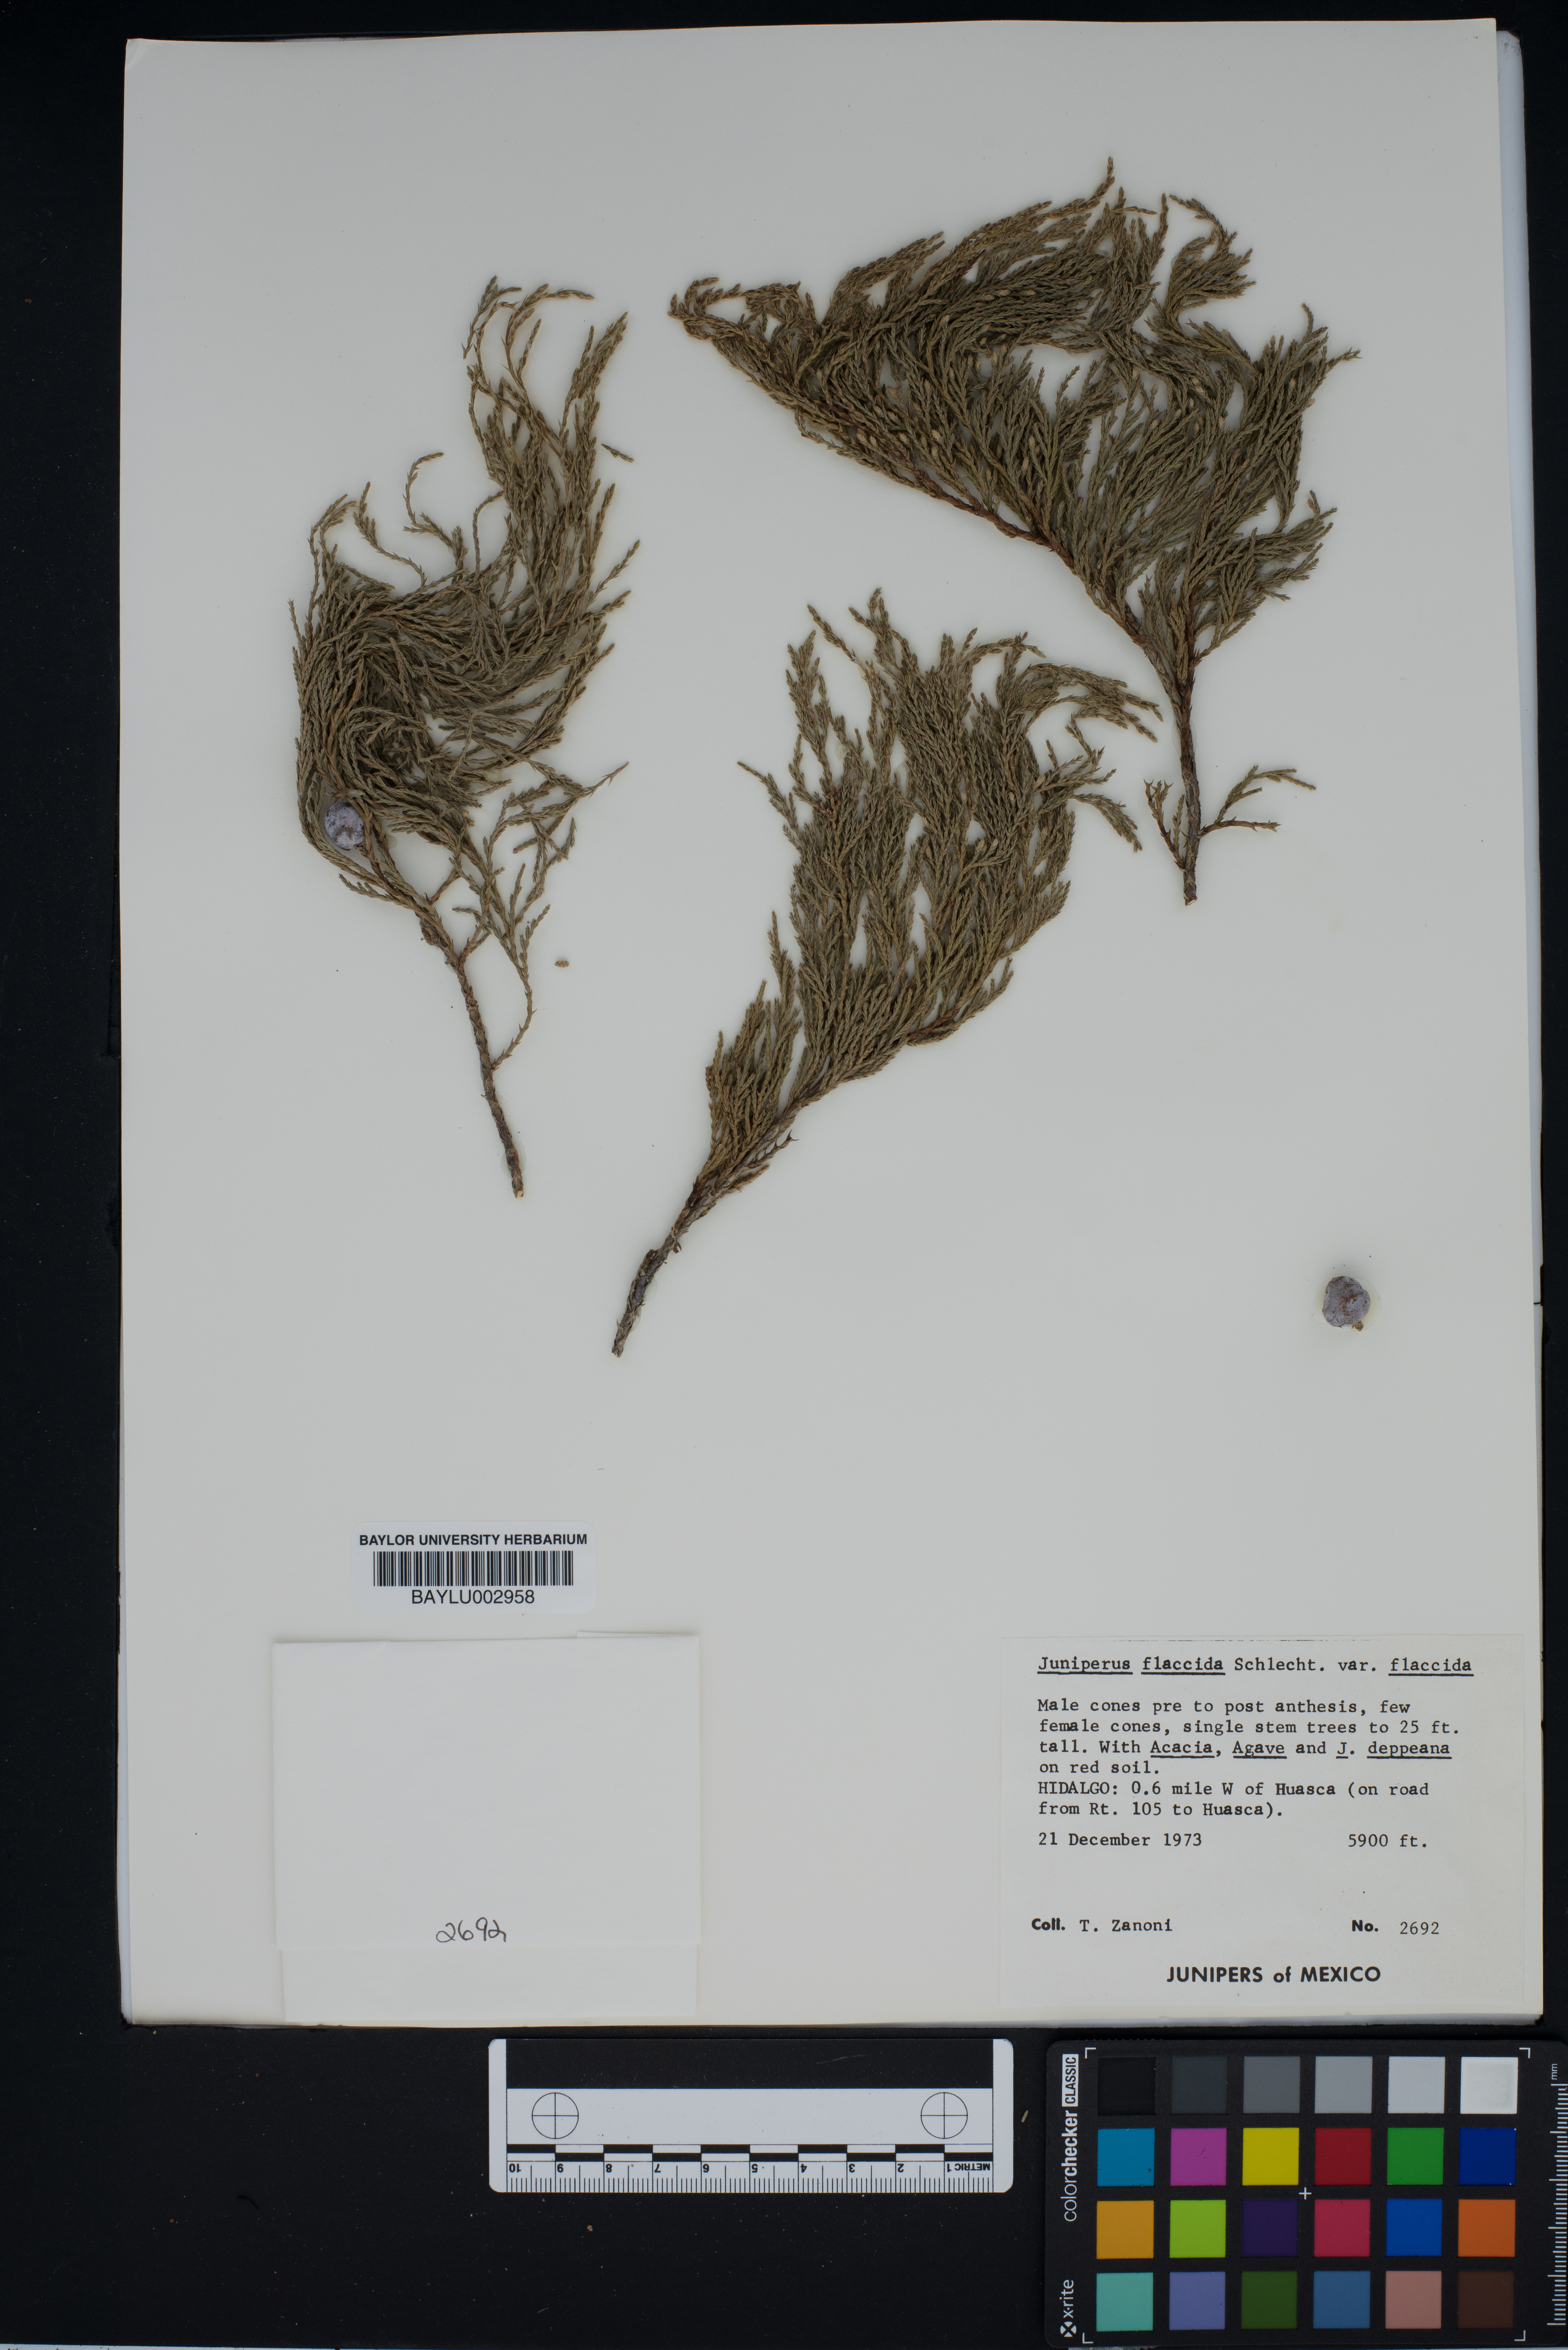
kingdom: Plantae
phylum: Tracheophyta
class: Pinopsida
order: Pinales
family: Cupressaceae
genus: Juniperus
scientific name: Juniperus flaccida
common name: Drooping juniper
